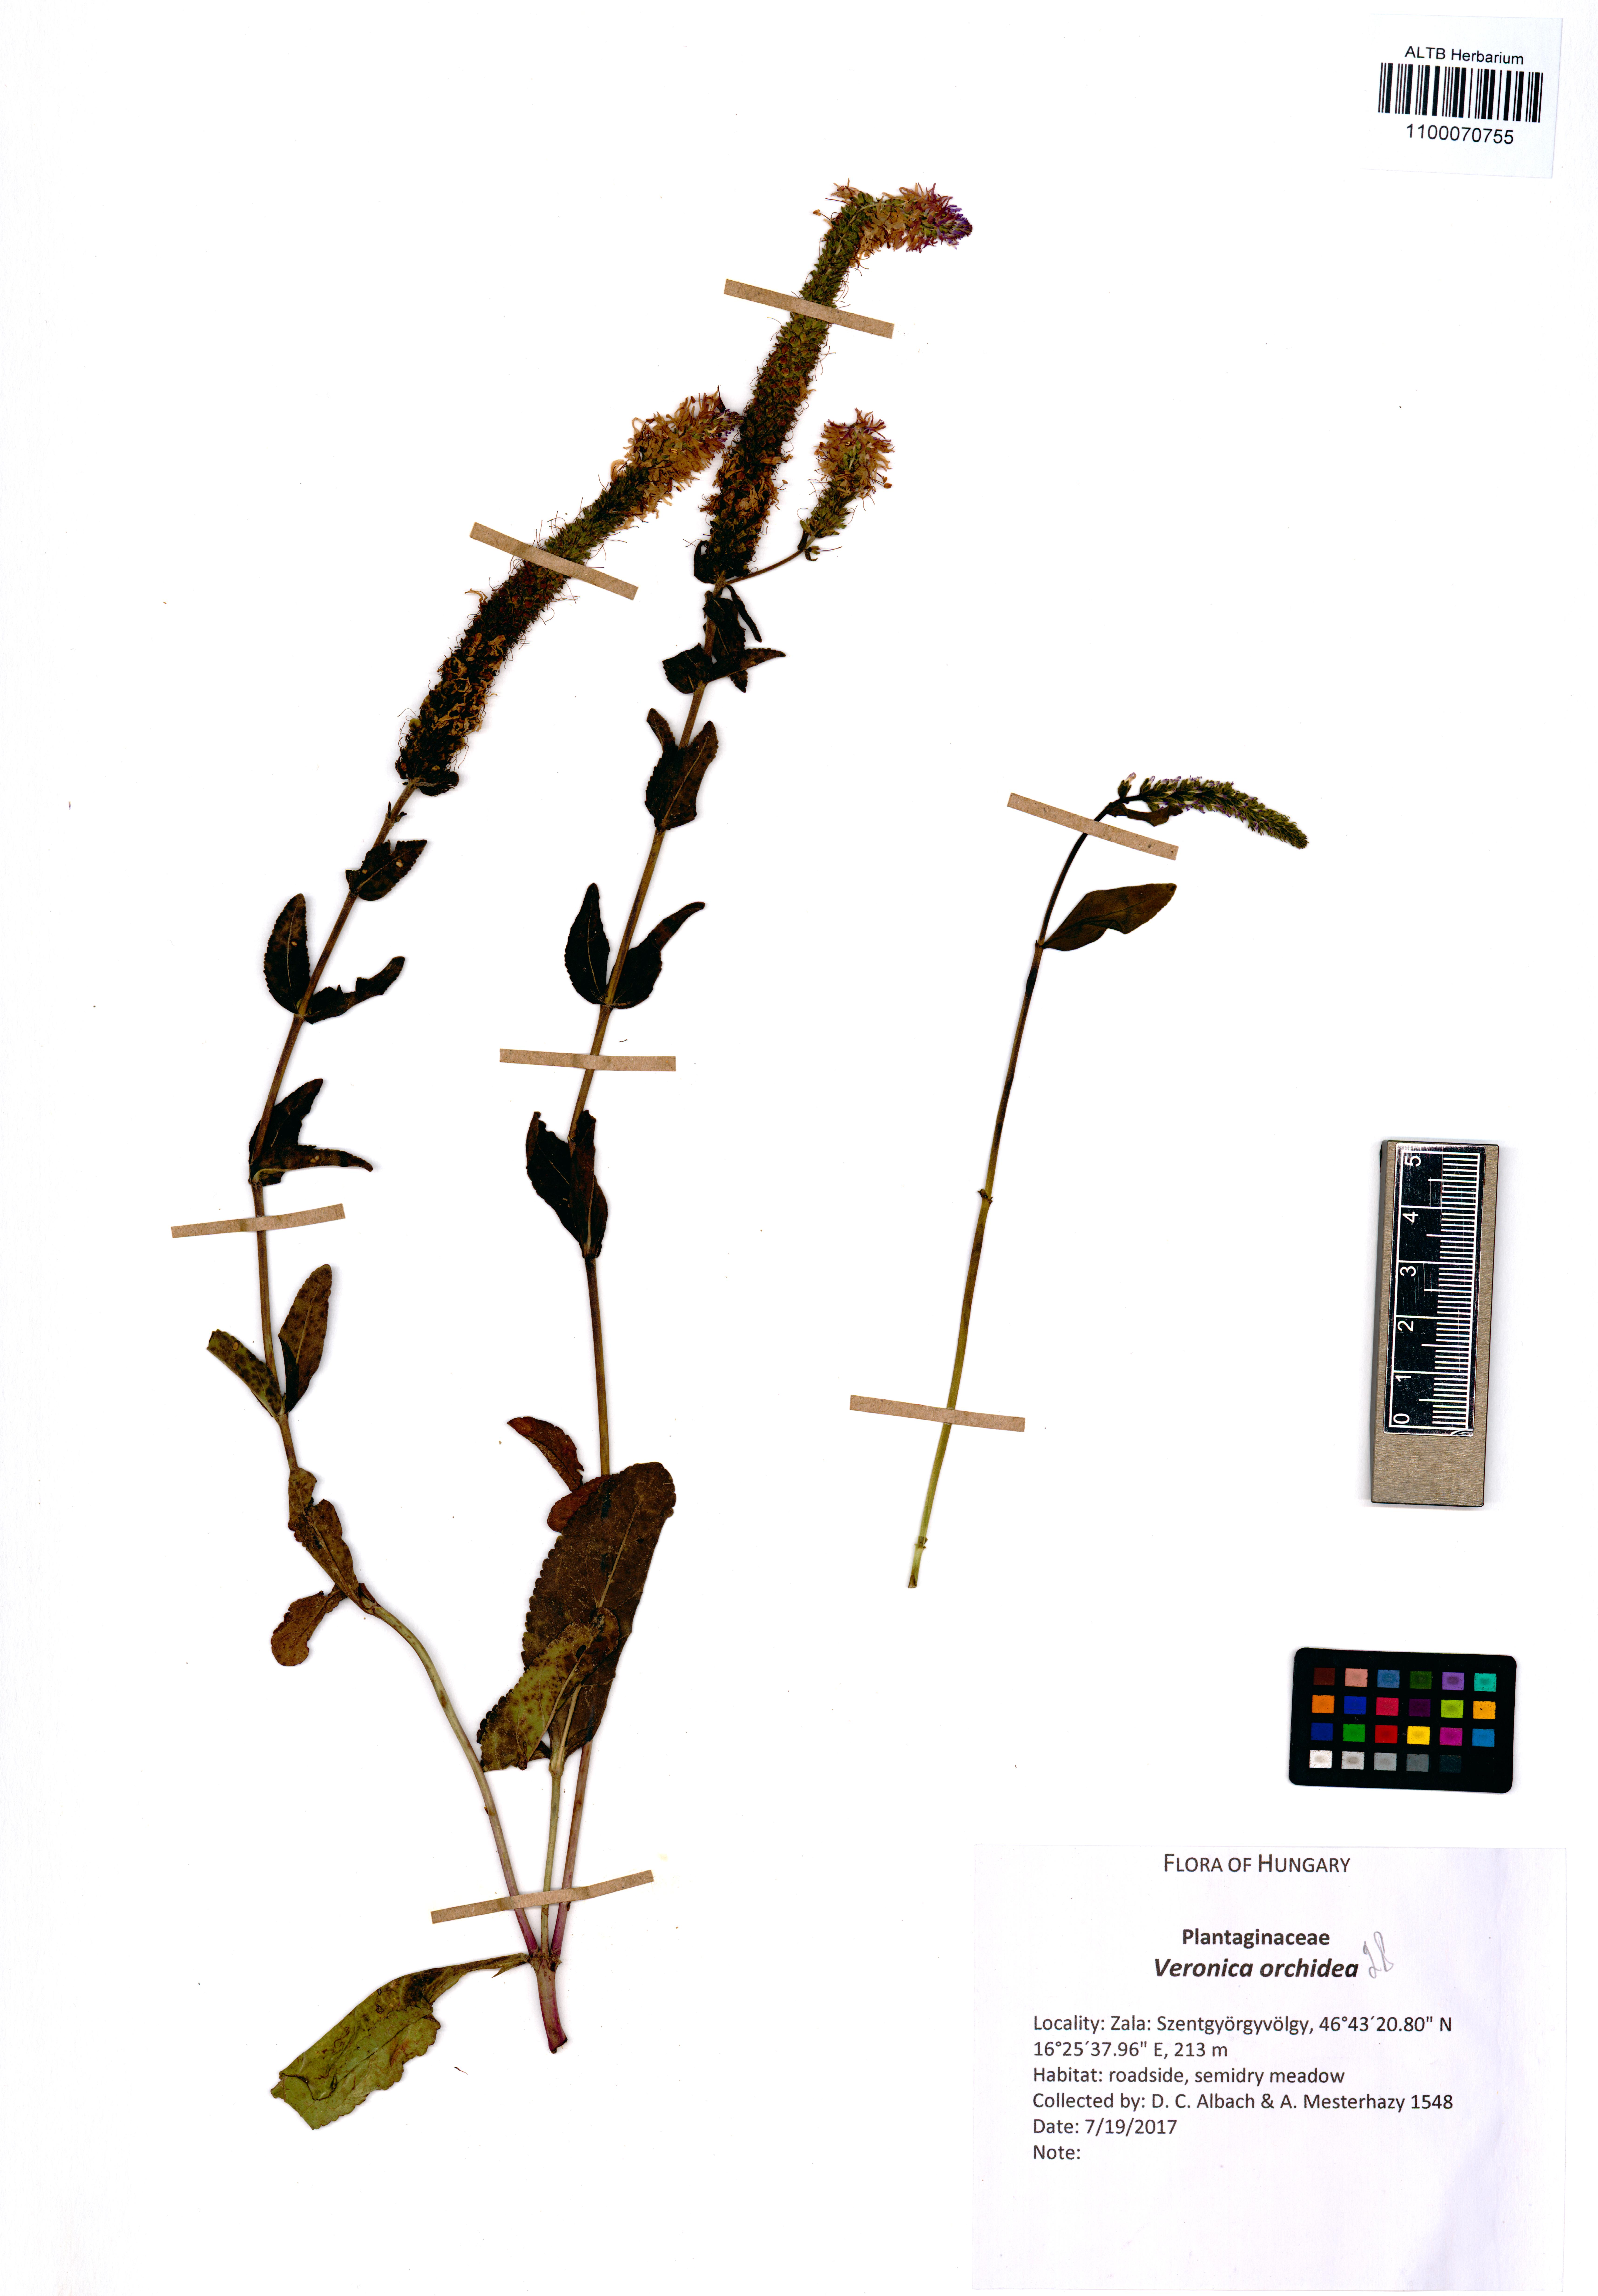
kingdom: Plantae
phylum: Tracheophyta
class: Magnoliopsida
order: Lamiales
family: Plantaginaceae
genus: Veronica
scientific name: Veronica orchidea
